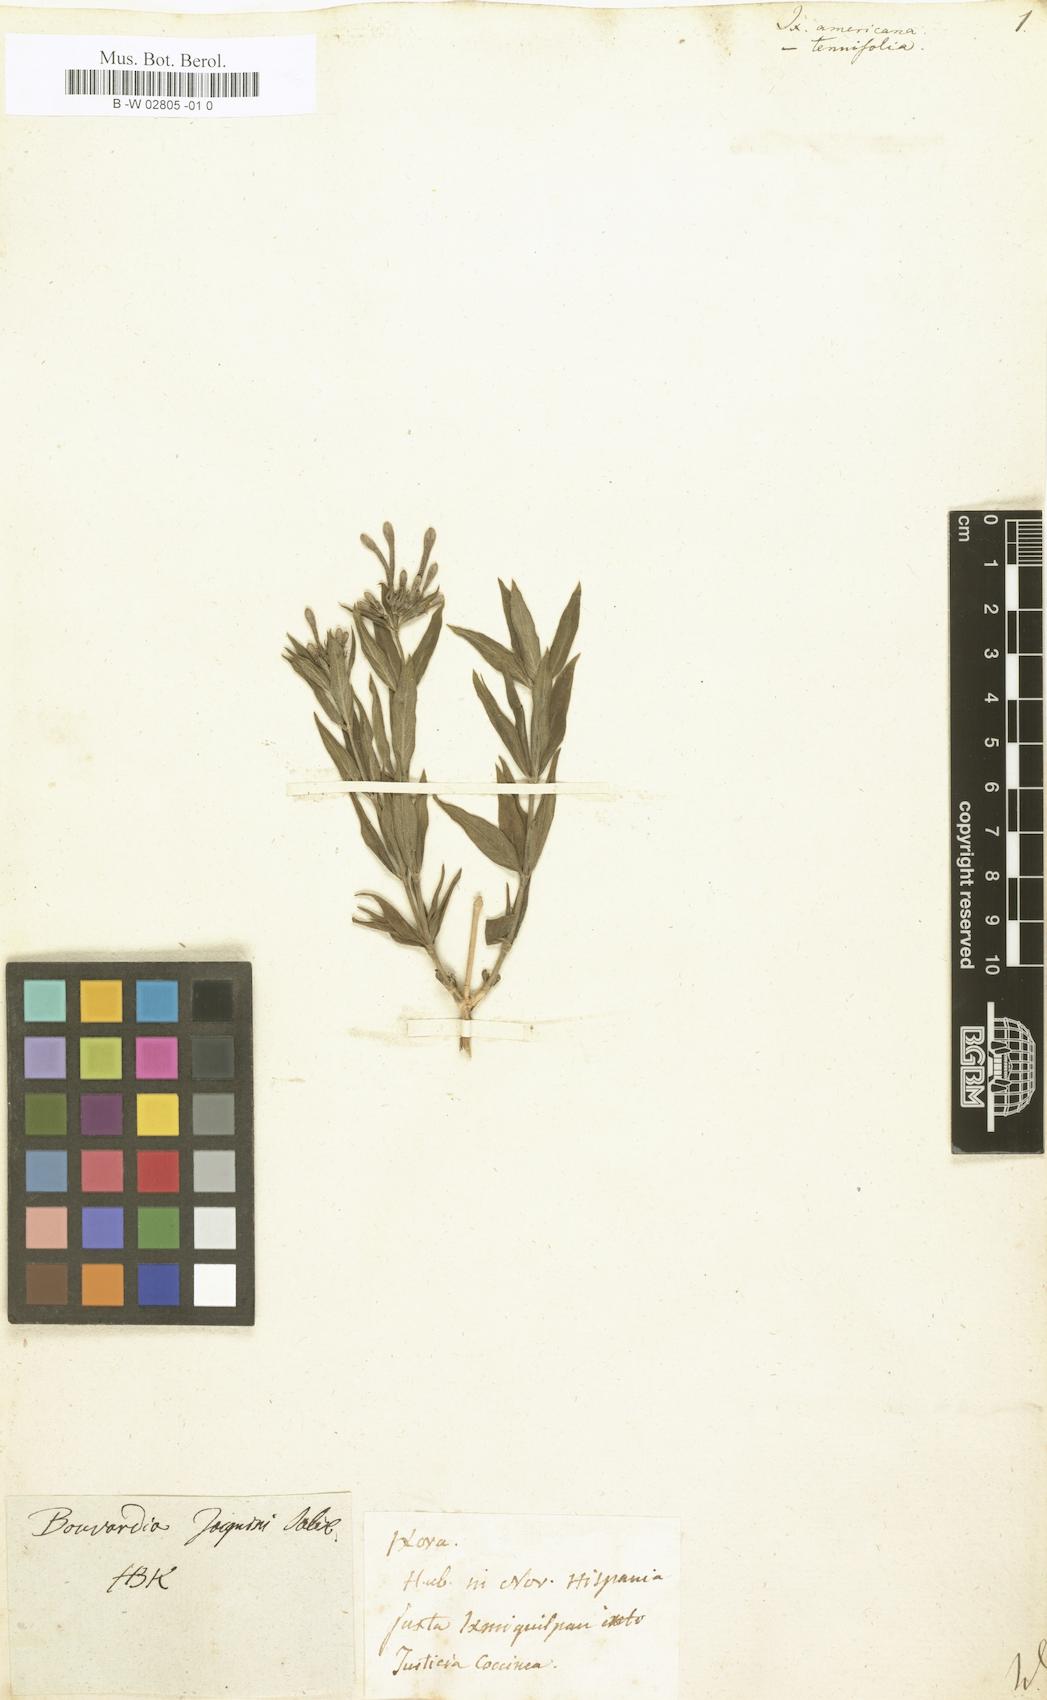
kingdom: Plantae
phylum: Tracheophyta
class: Magnoliopsida
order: Gentianales
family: Rubiaceae
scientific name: Rubiaceae
